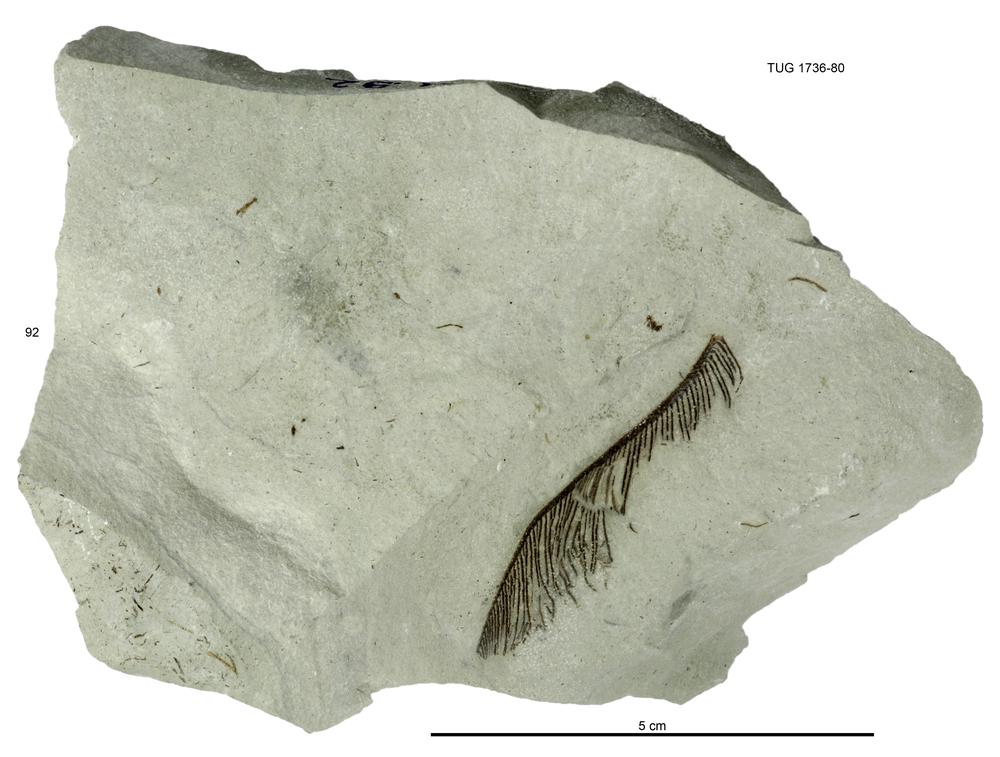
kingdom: Animalia
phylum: Echinodermata
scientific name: Echinodermata
